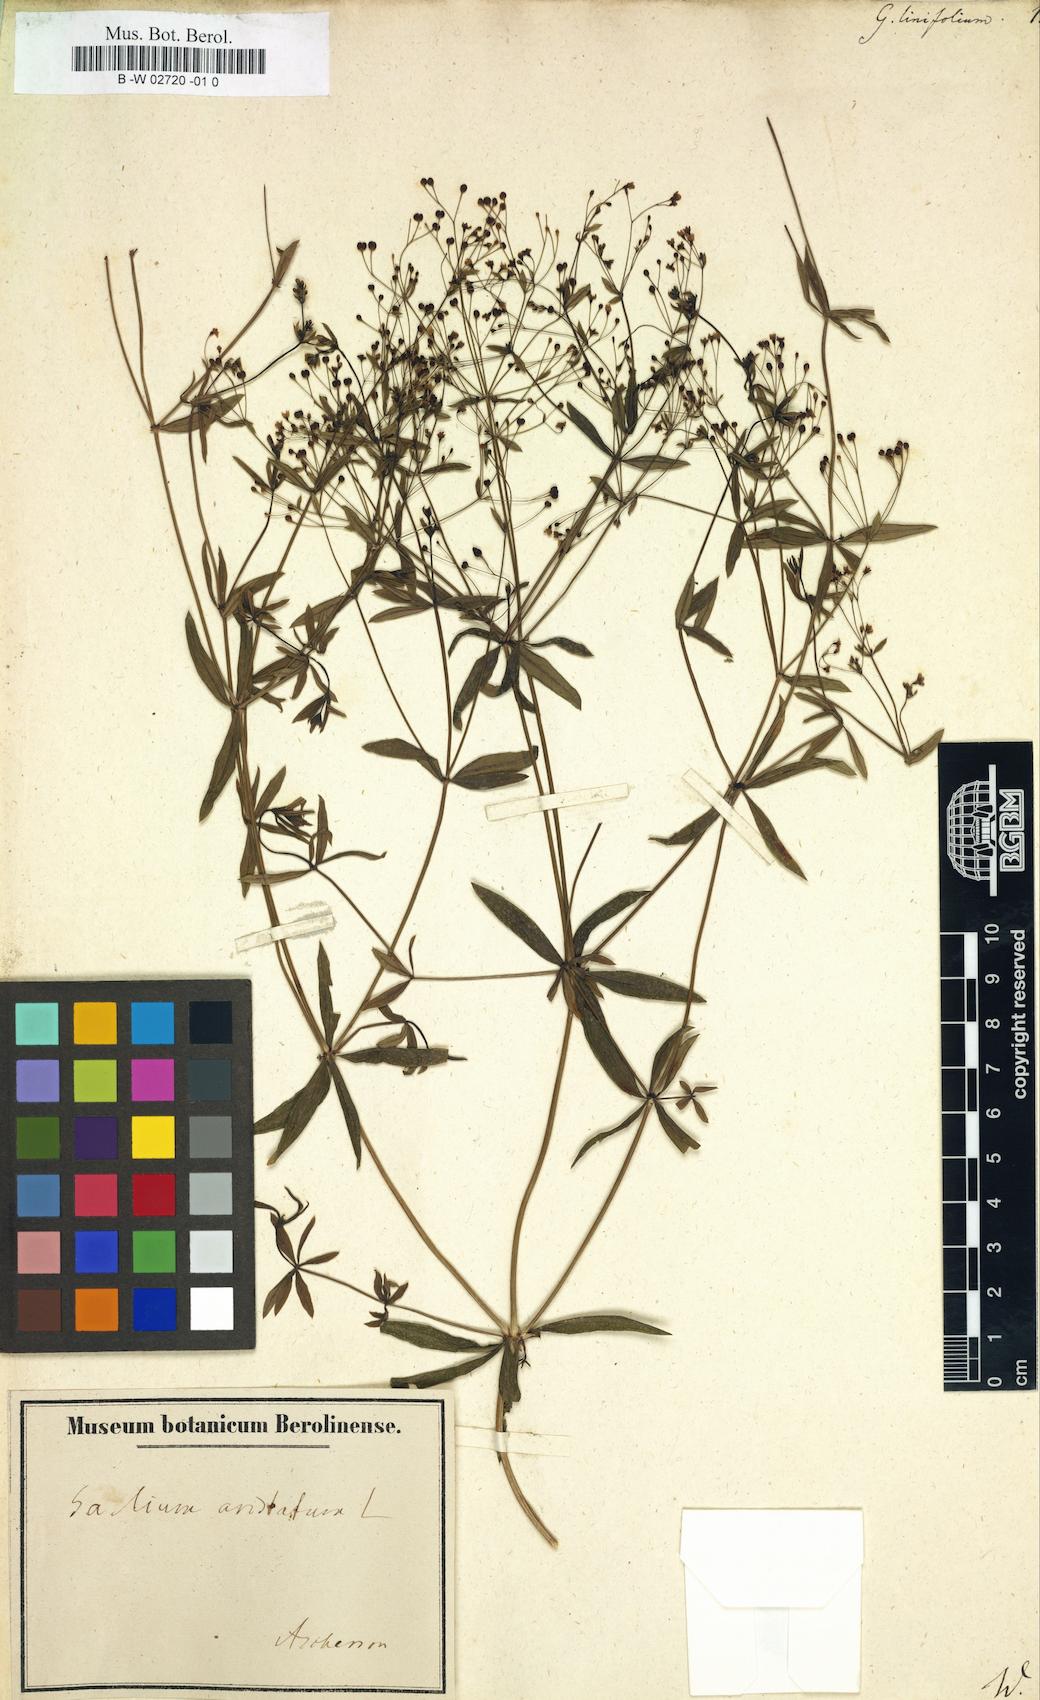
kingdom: Plantae
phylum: Tracheophyta
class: Magnoliopsida
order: Gentianales
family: Rubiaceae
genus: Galium
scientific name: Galium aristatum
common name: Awned bedstraw
